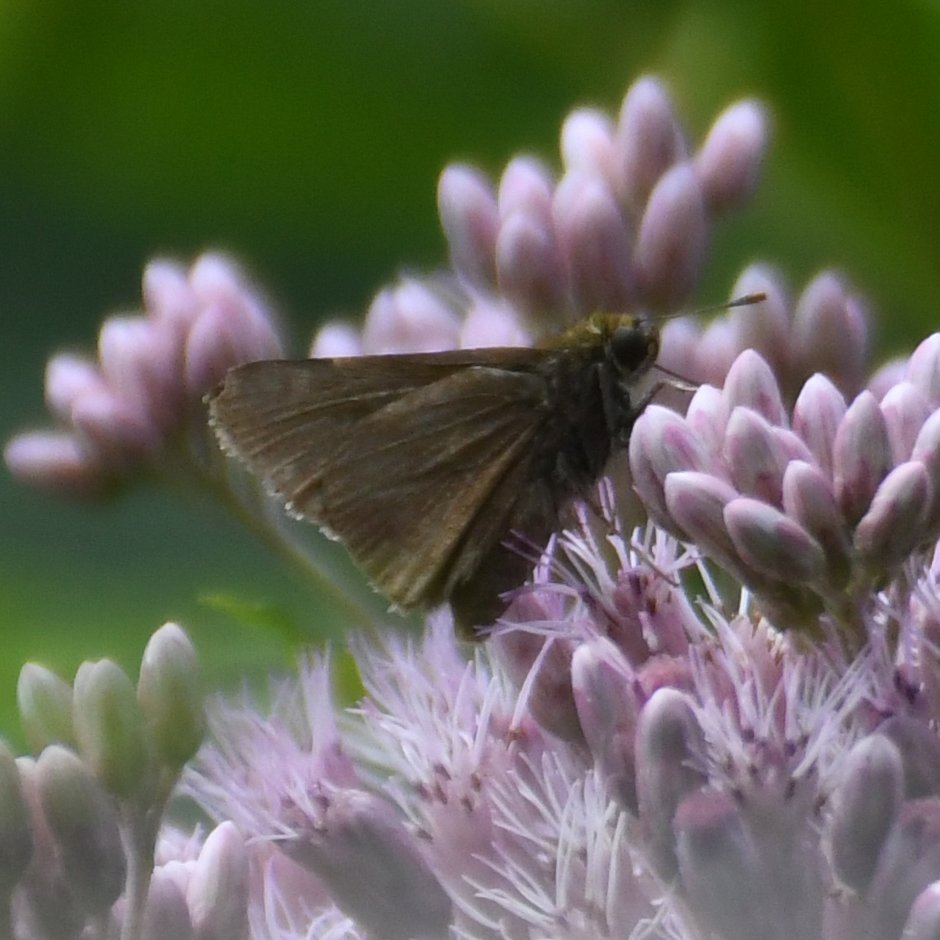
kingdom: Animalia
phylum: Arthropoda
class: Insecta
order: Lepidoptera
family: Hesperiidae
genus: Euphyes
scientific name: Euphyes vestris
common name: Dun Skipper
